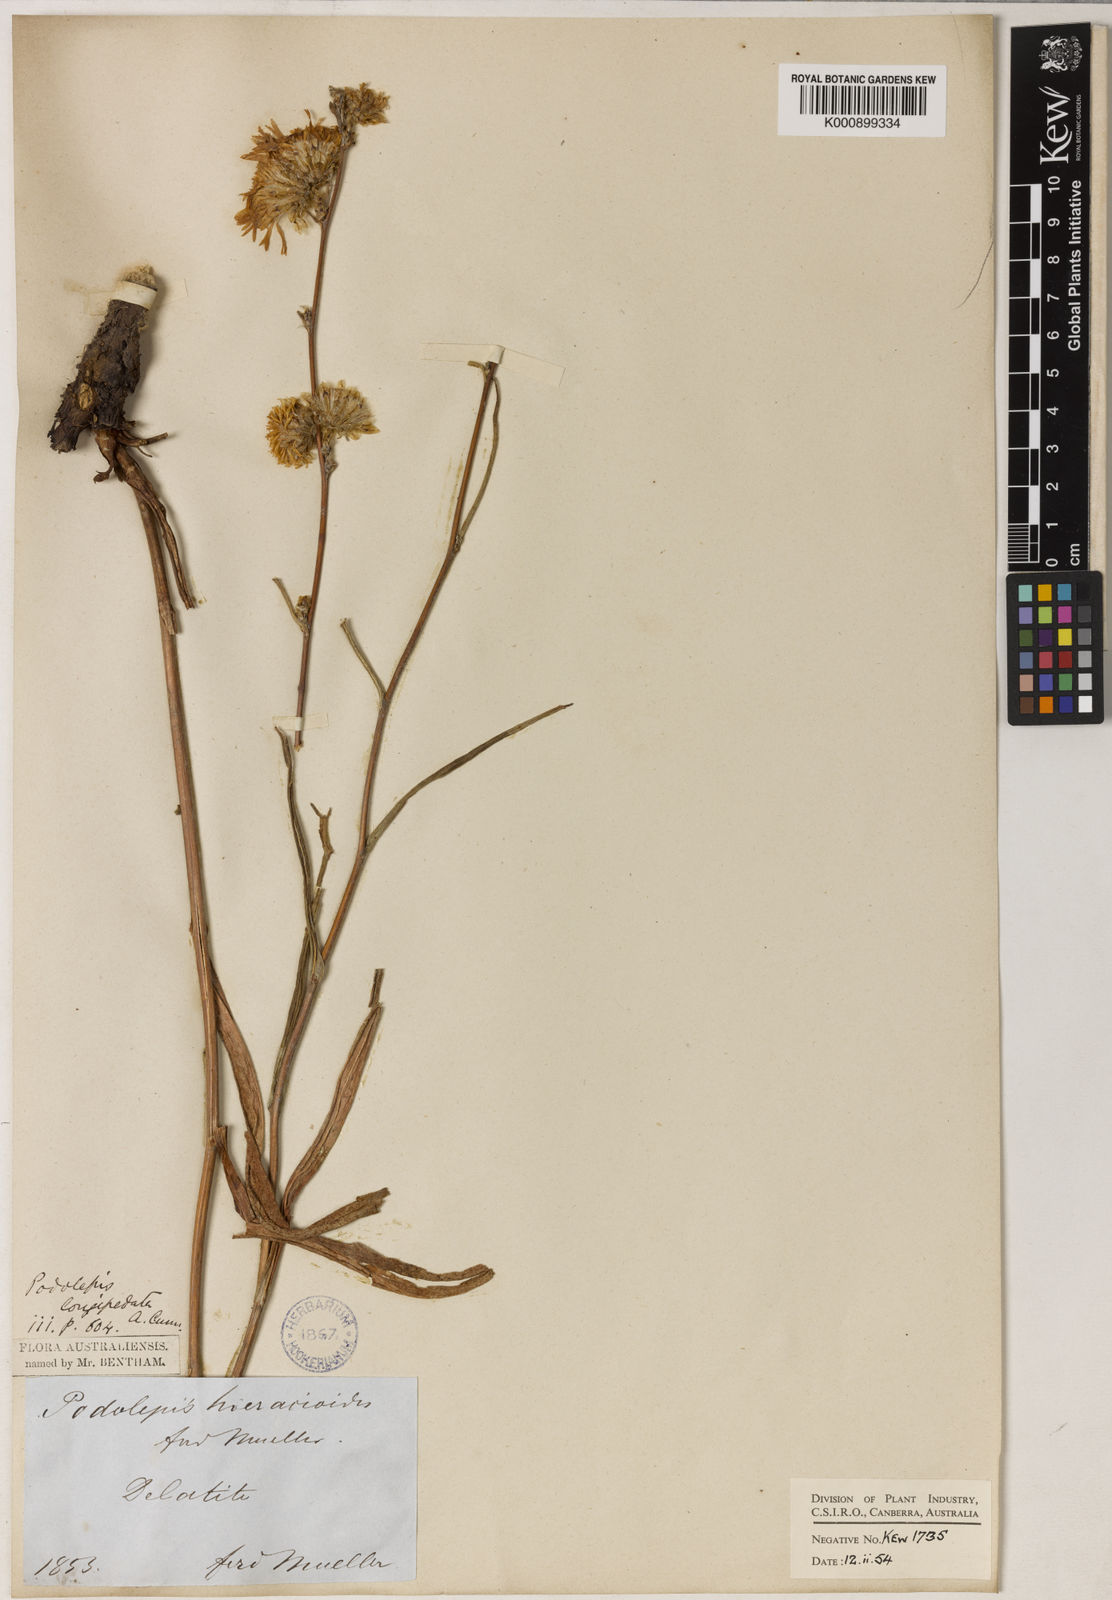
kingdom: Plantae
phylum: Tracheophyta
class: Magnoliopsida
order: Asterales
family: Asteraceae
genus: Podolepis
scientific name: Podolepis longipedata
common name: Tall copper-wire-daisy
